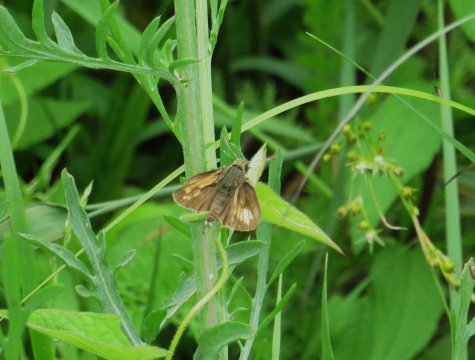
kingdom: Animalia
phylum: Arthropoda
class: Insecta
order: Lepidoptera
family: Hesperiidae
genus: Polites
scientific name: Polites coras
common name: Peck's Skipper
